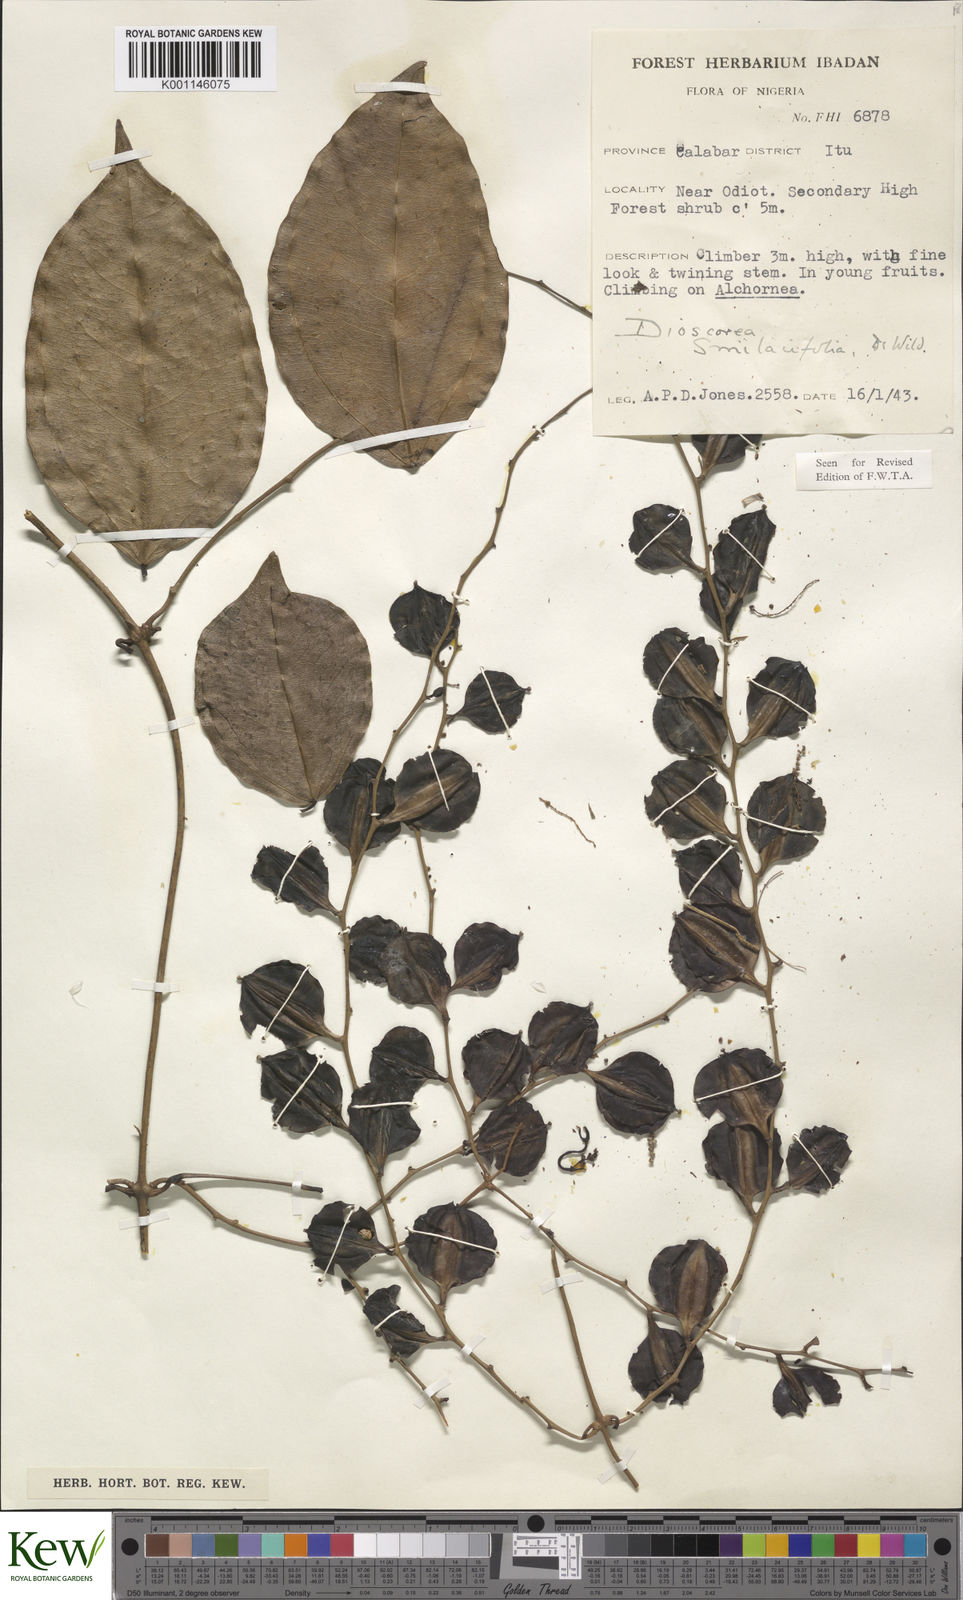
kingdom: Plantae
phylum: Tracheophyta
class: Liliopsida
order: Dioscoreales
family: Dioscoreaceae
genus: Dioscorea
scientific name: Dioscorea smilacifolia
